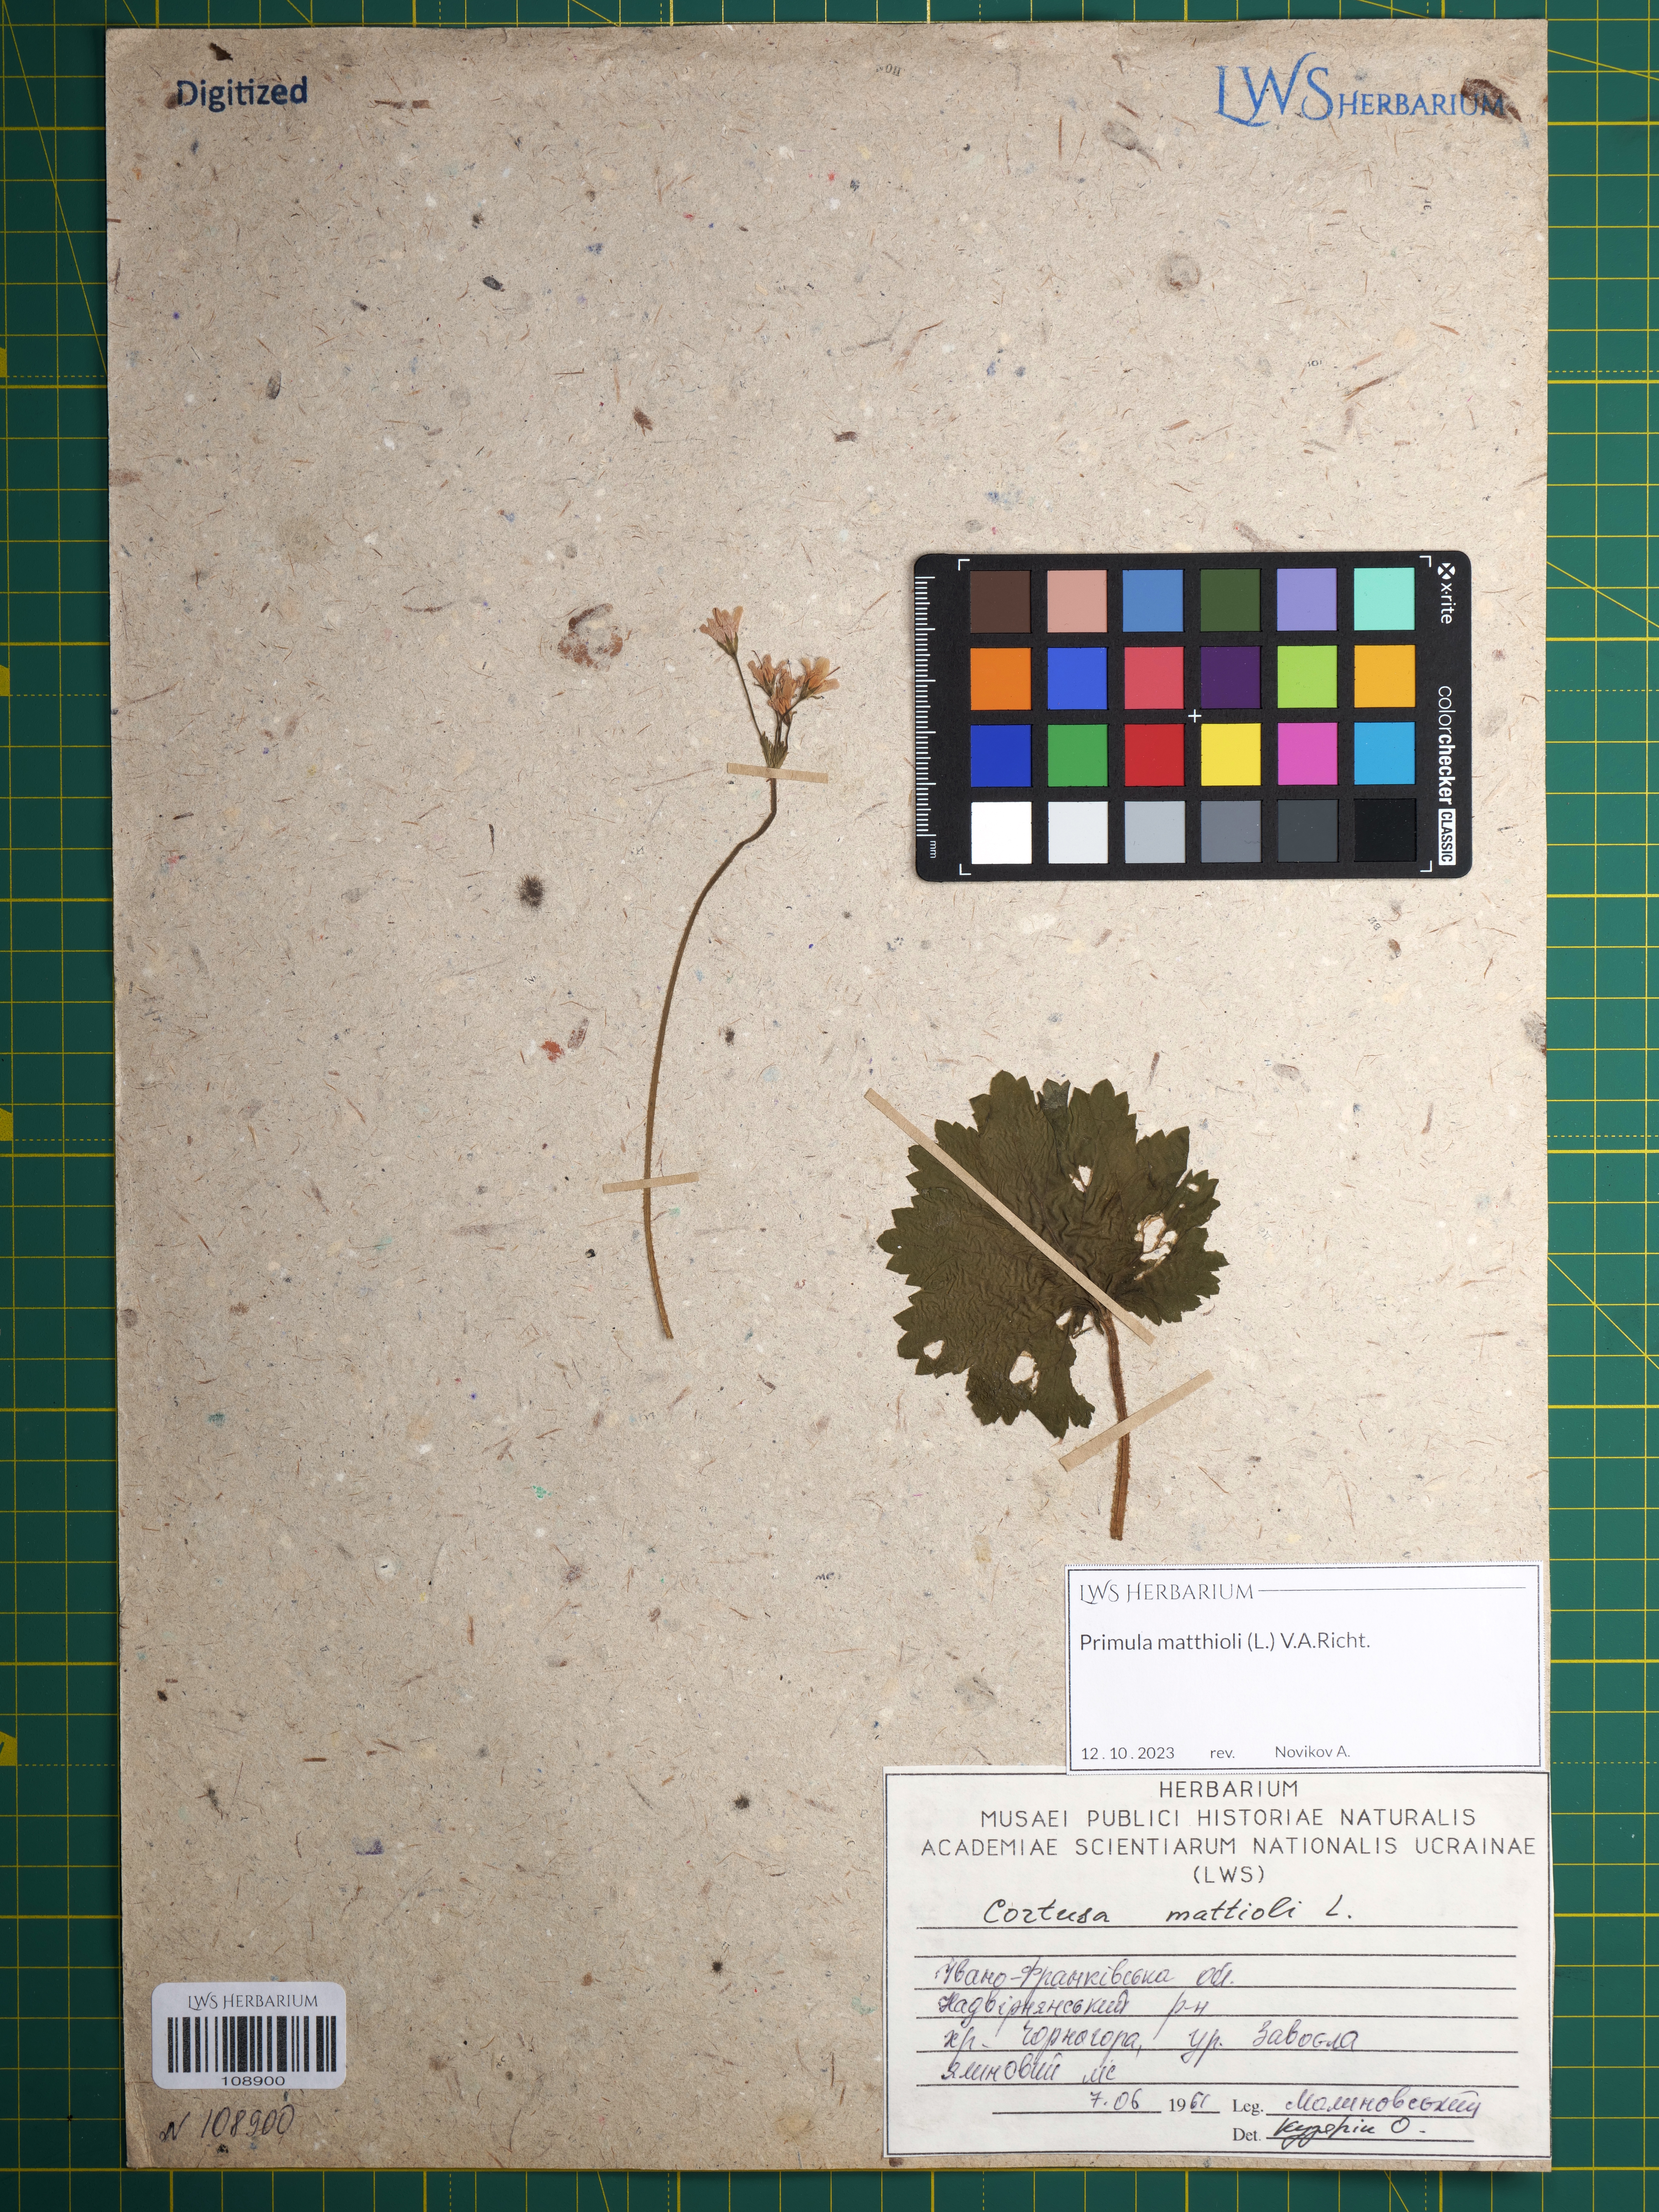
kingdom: Plantae
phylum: Tracheophyta
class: Magnoliopsida
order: Ericales
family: Primulaceae
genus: Primula
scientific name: Primula matthioli
